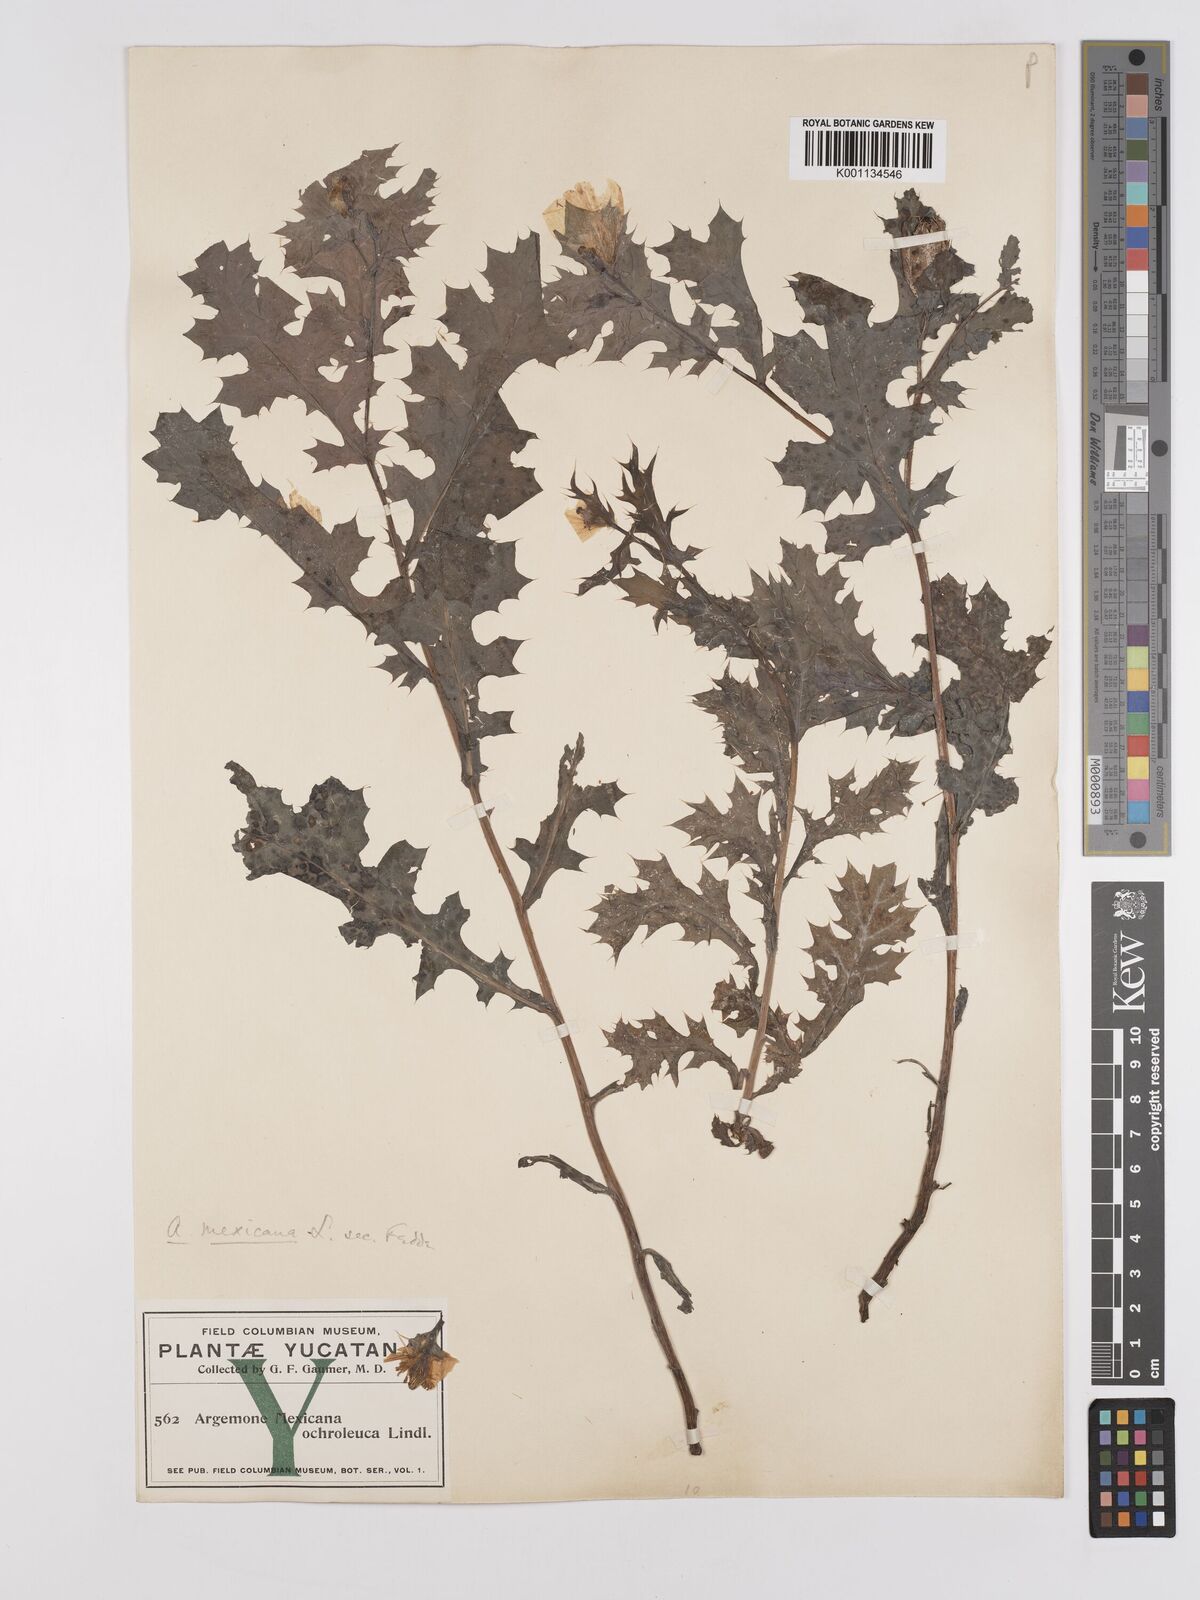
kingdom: Plantae
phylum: Tracheophyta
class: Magnoliopsida
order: Ranunculales
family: Papaveraceae
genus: Argemone
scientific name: Argemone mexicana
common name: Mexican poppy
